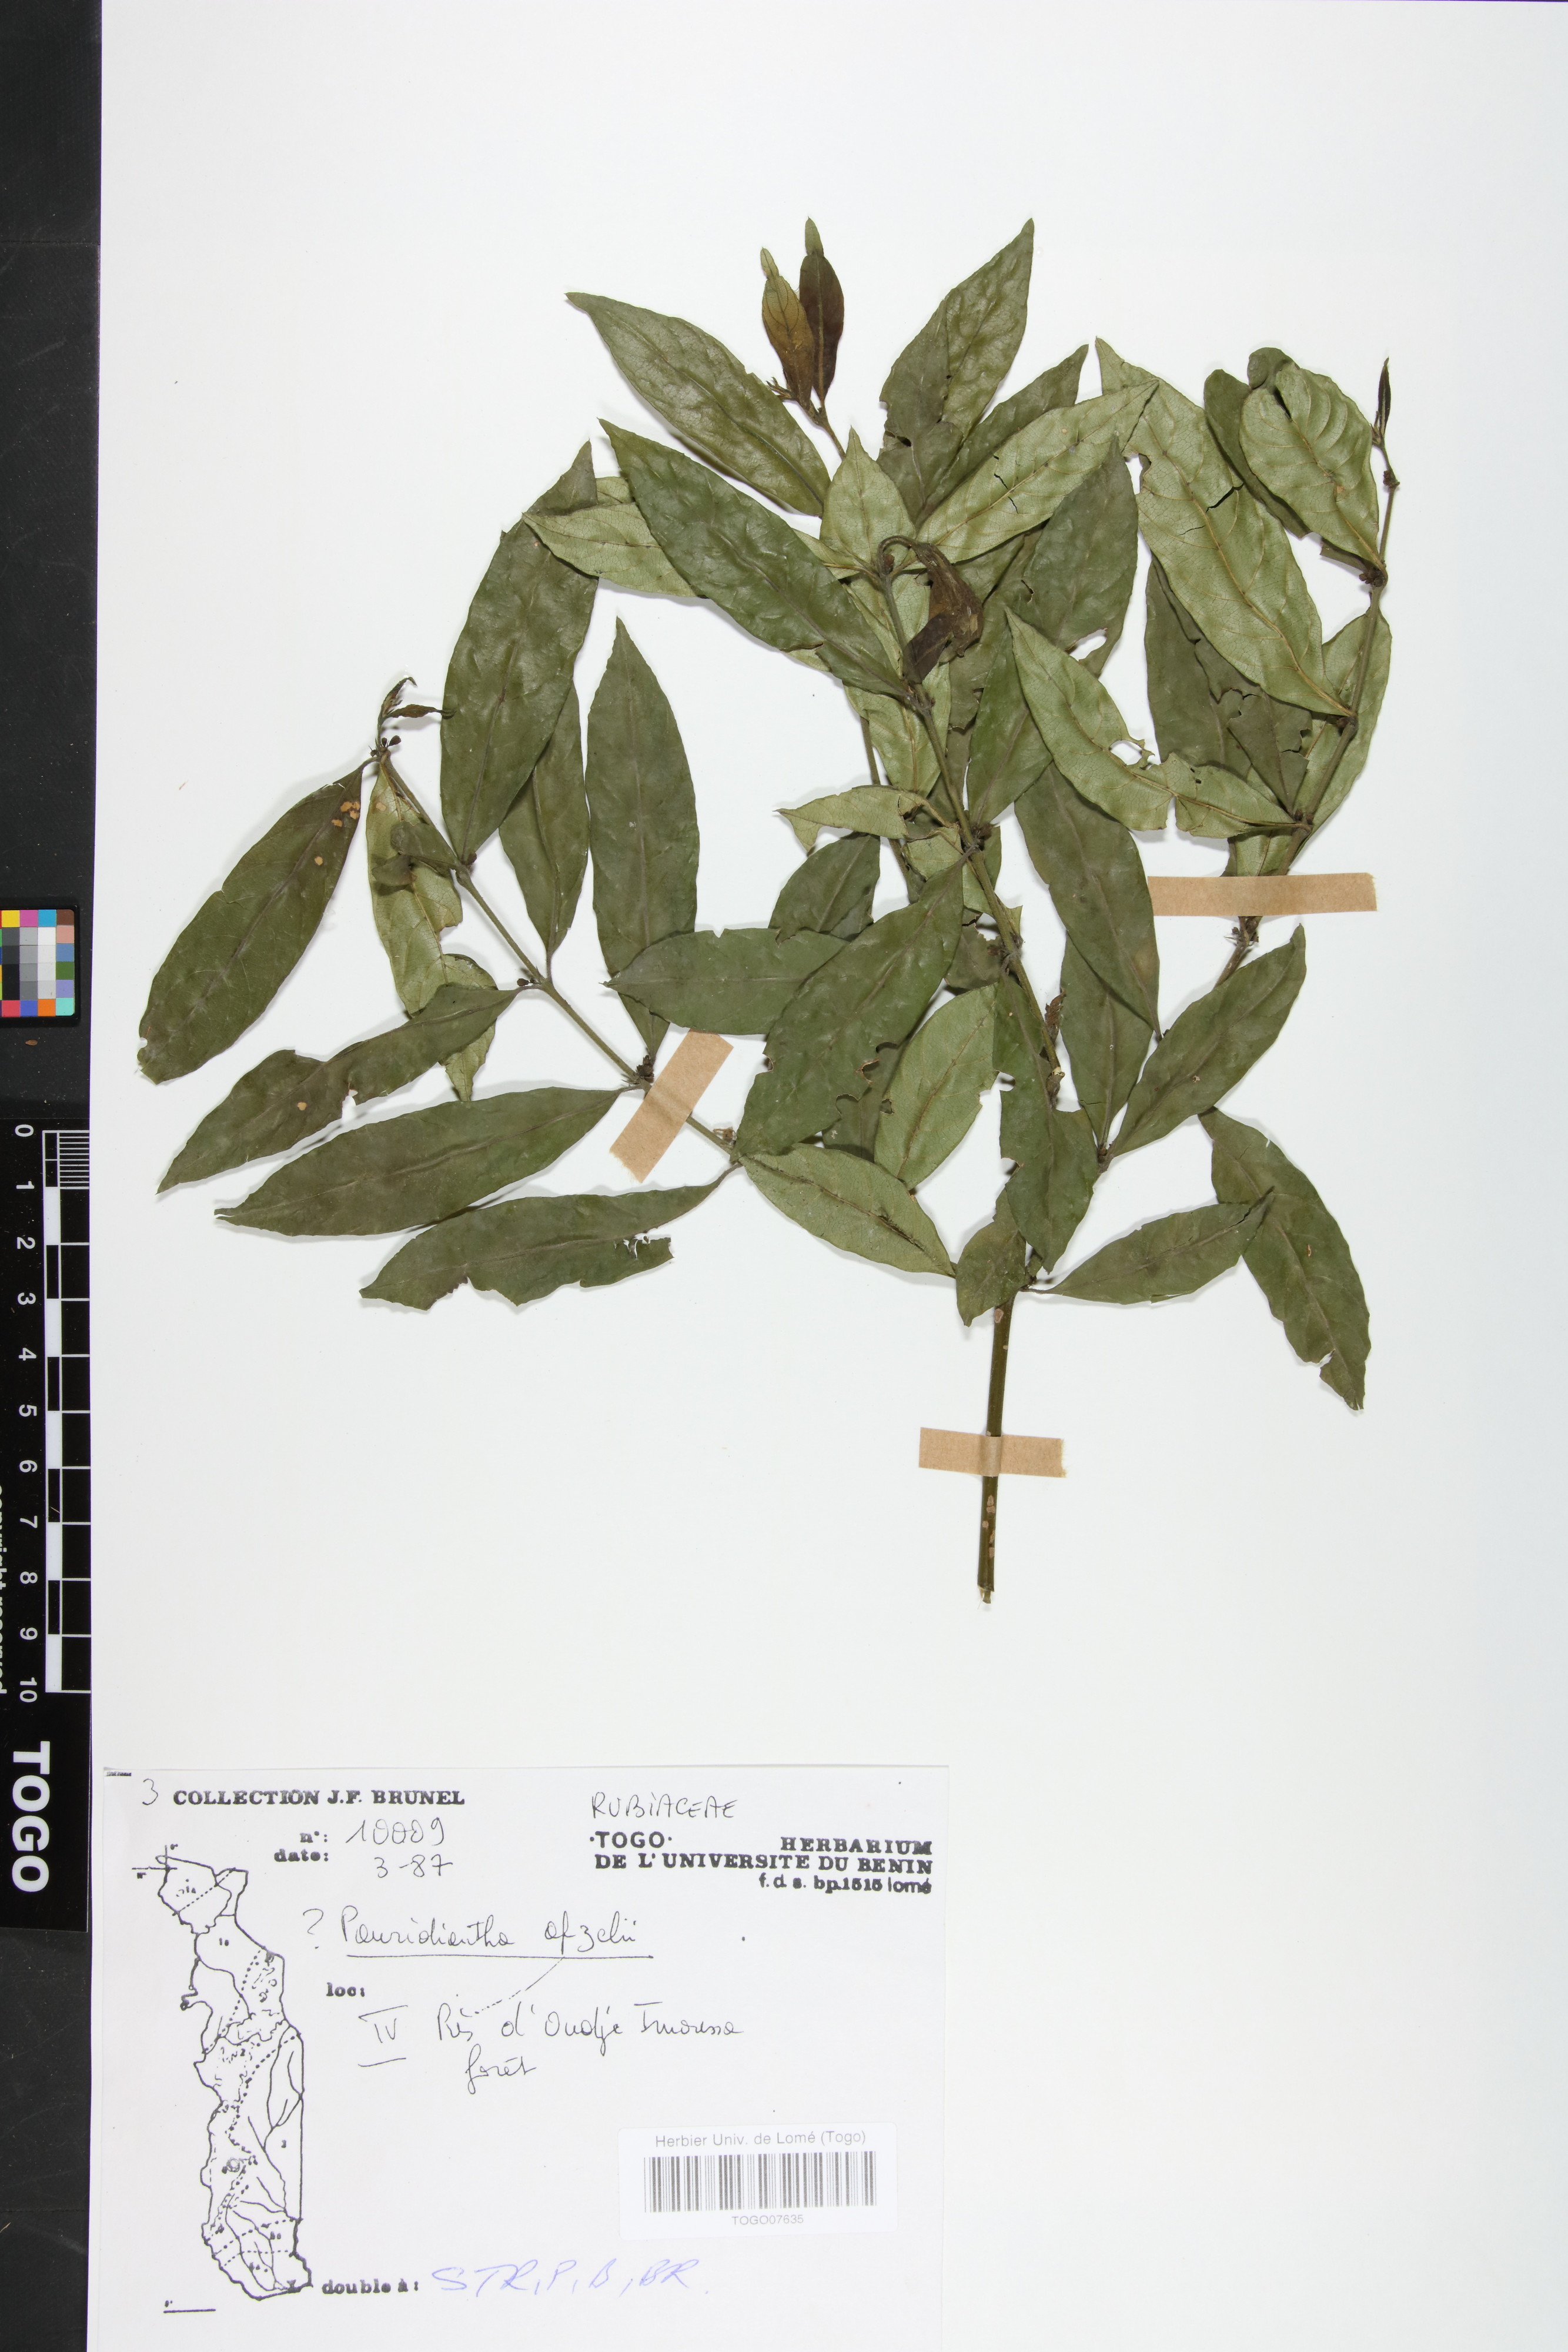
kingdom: Plantae
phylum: Tracheophyta
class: Magnoliopsida
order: Gentianales
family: Rubiaceae
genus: Pauridiantha
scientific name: Pauridiantha afzelii
